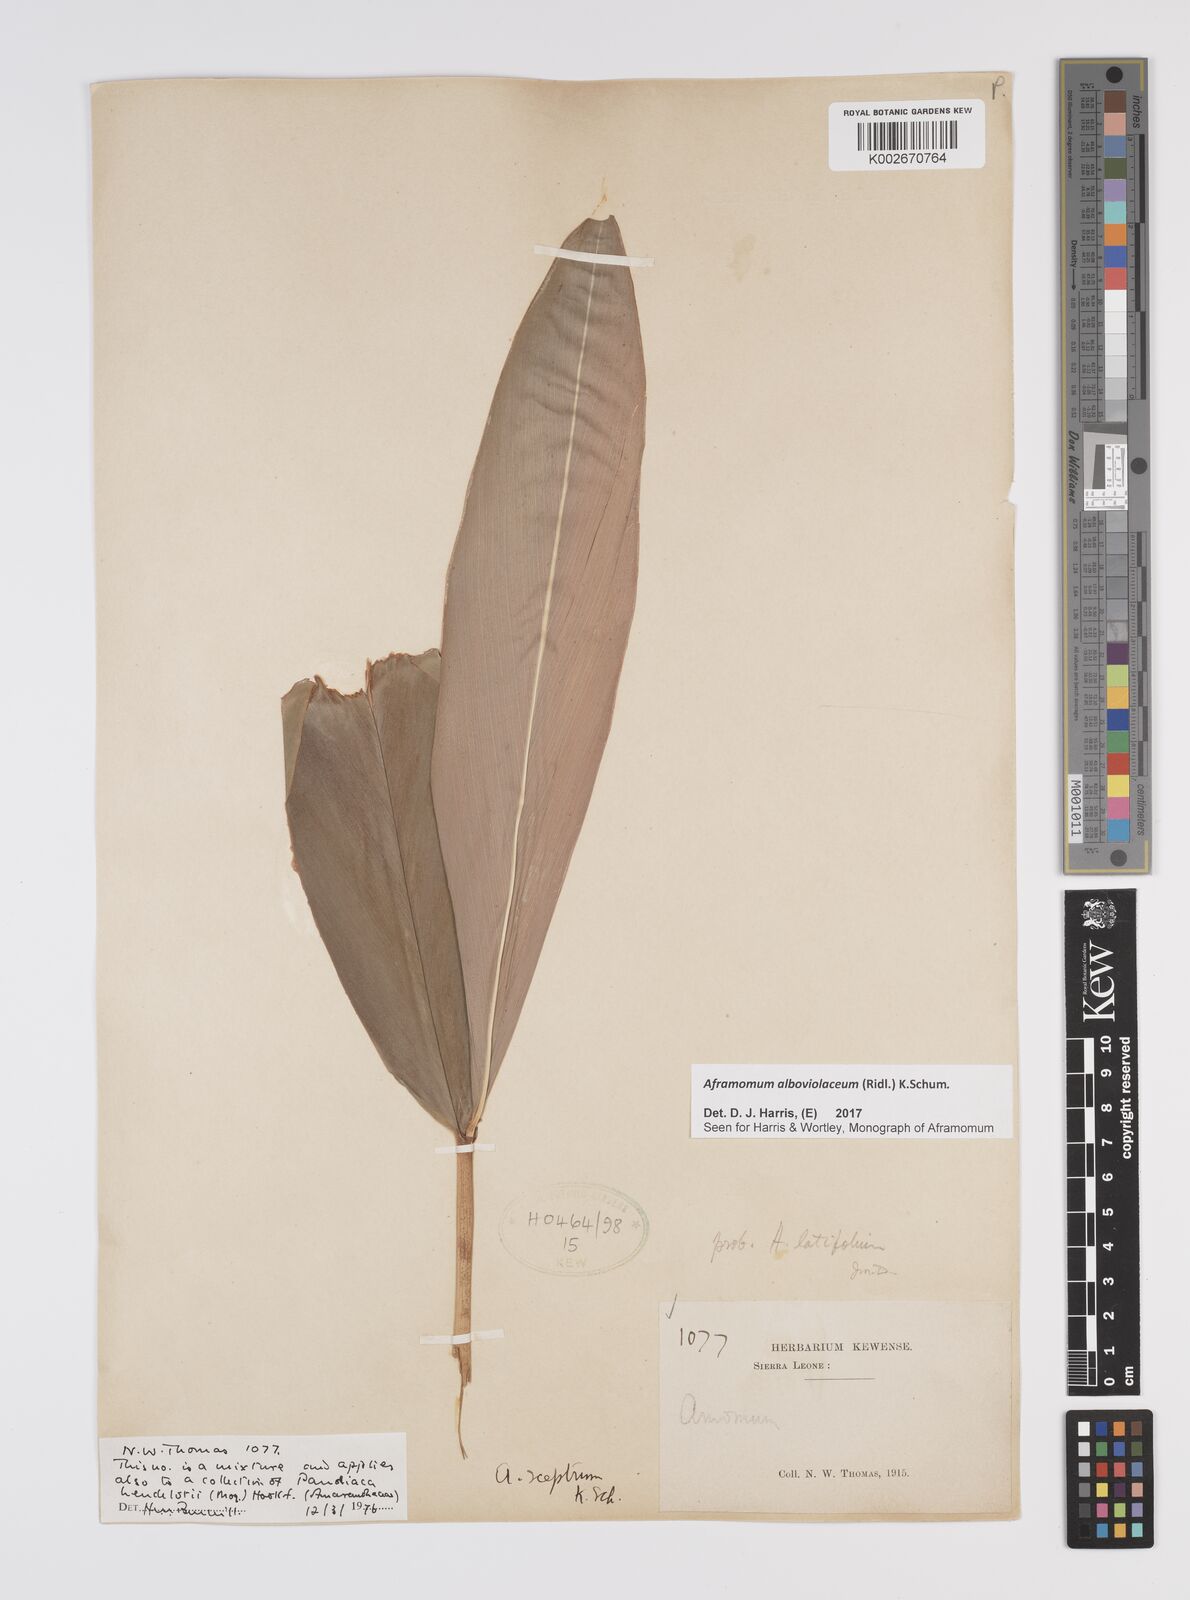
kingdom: Plantae
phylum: Tracheophyta
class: Liliopsida
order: Zingiberales
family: Zingiberaceae
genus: Aframomum
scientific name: Aframomum alboviolaceum
